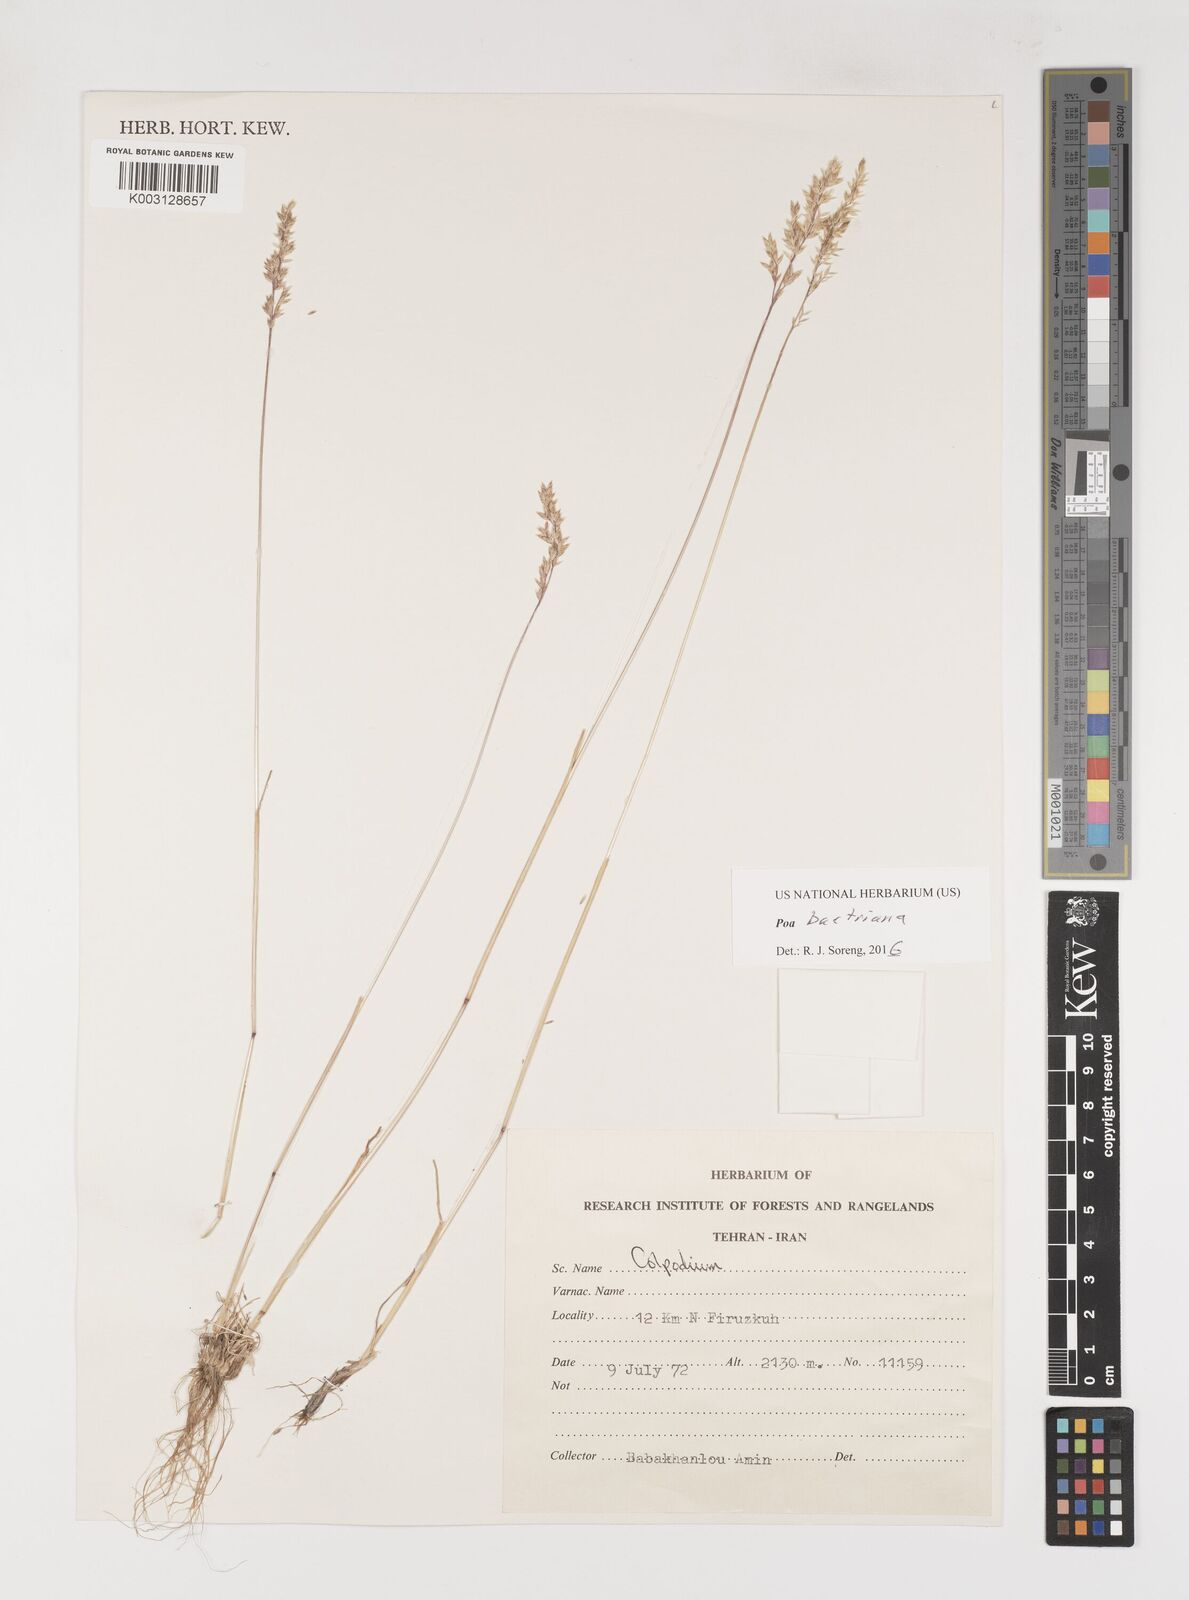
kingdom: Plantae
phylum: Tracheophyta
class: Liliopsida
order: Poales
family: Poaceae
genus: Poa
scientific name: Poa bactriana
